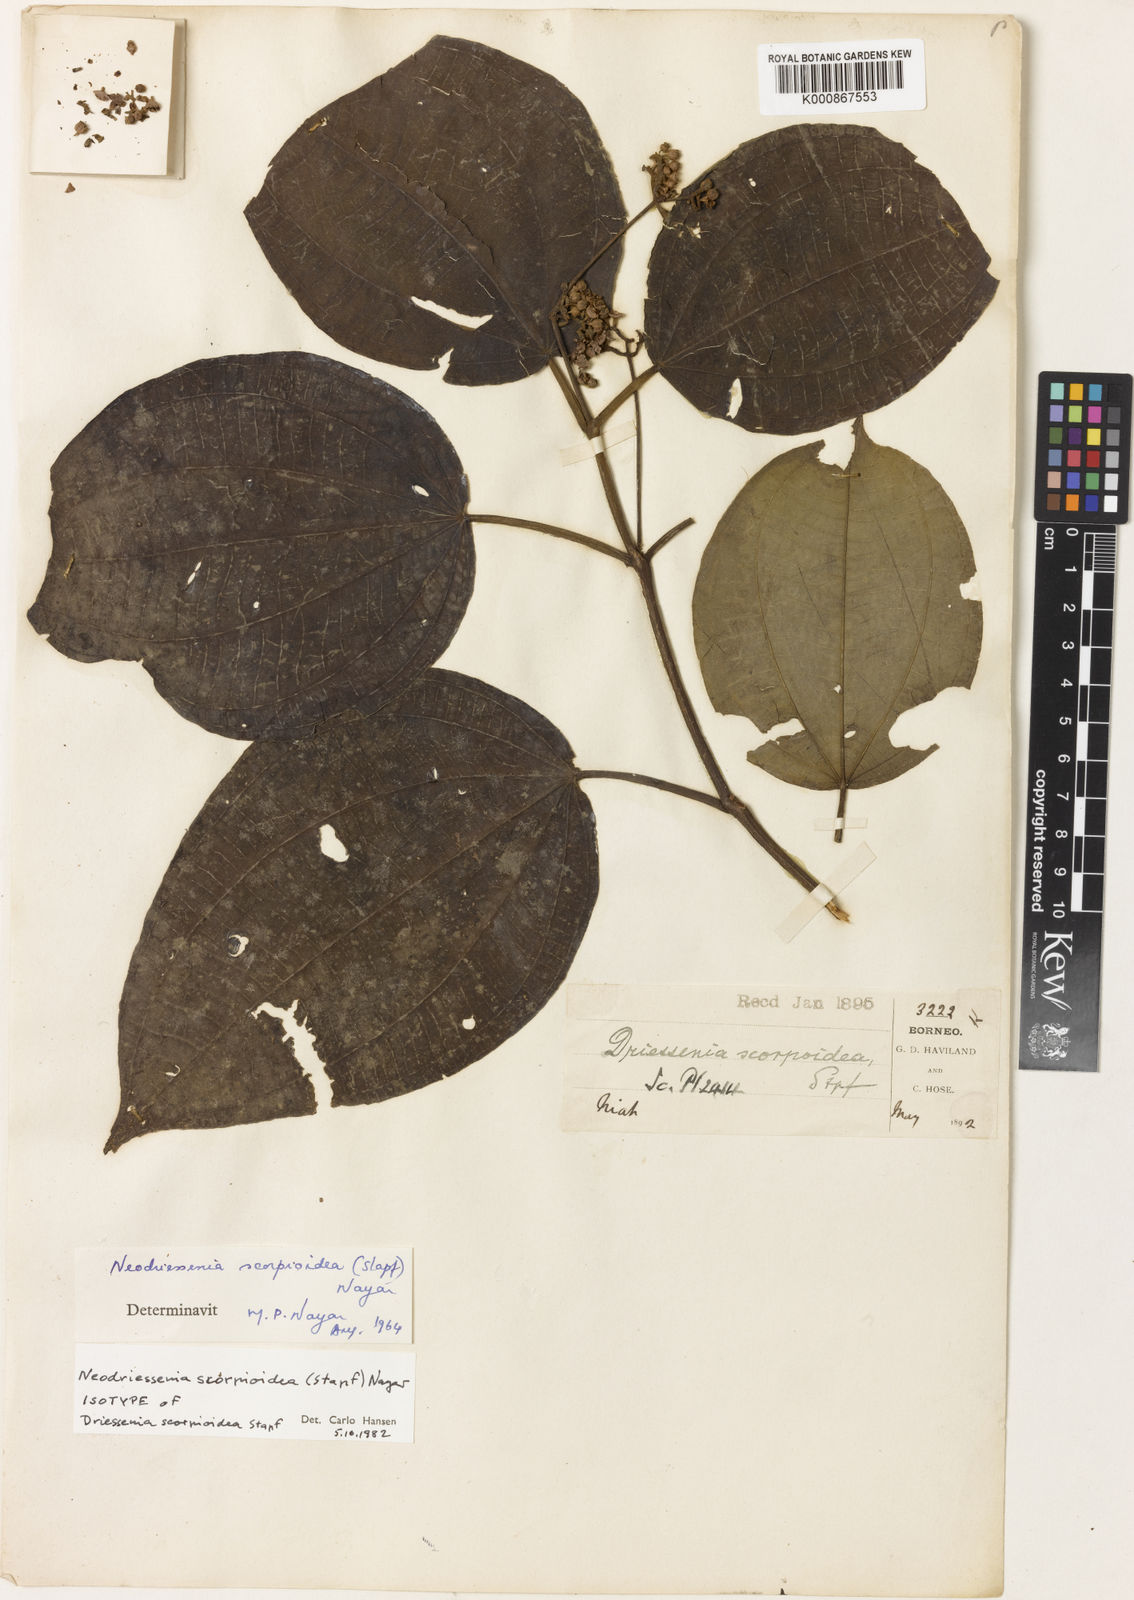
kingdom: Plantae
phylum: Tracheophyta
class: Magnoliopsida
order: Myrtales
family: Melastomataceae
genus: Neodriessenia
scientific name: Neodriessenia scorpioidea
